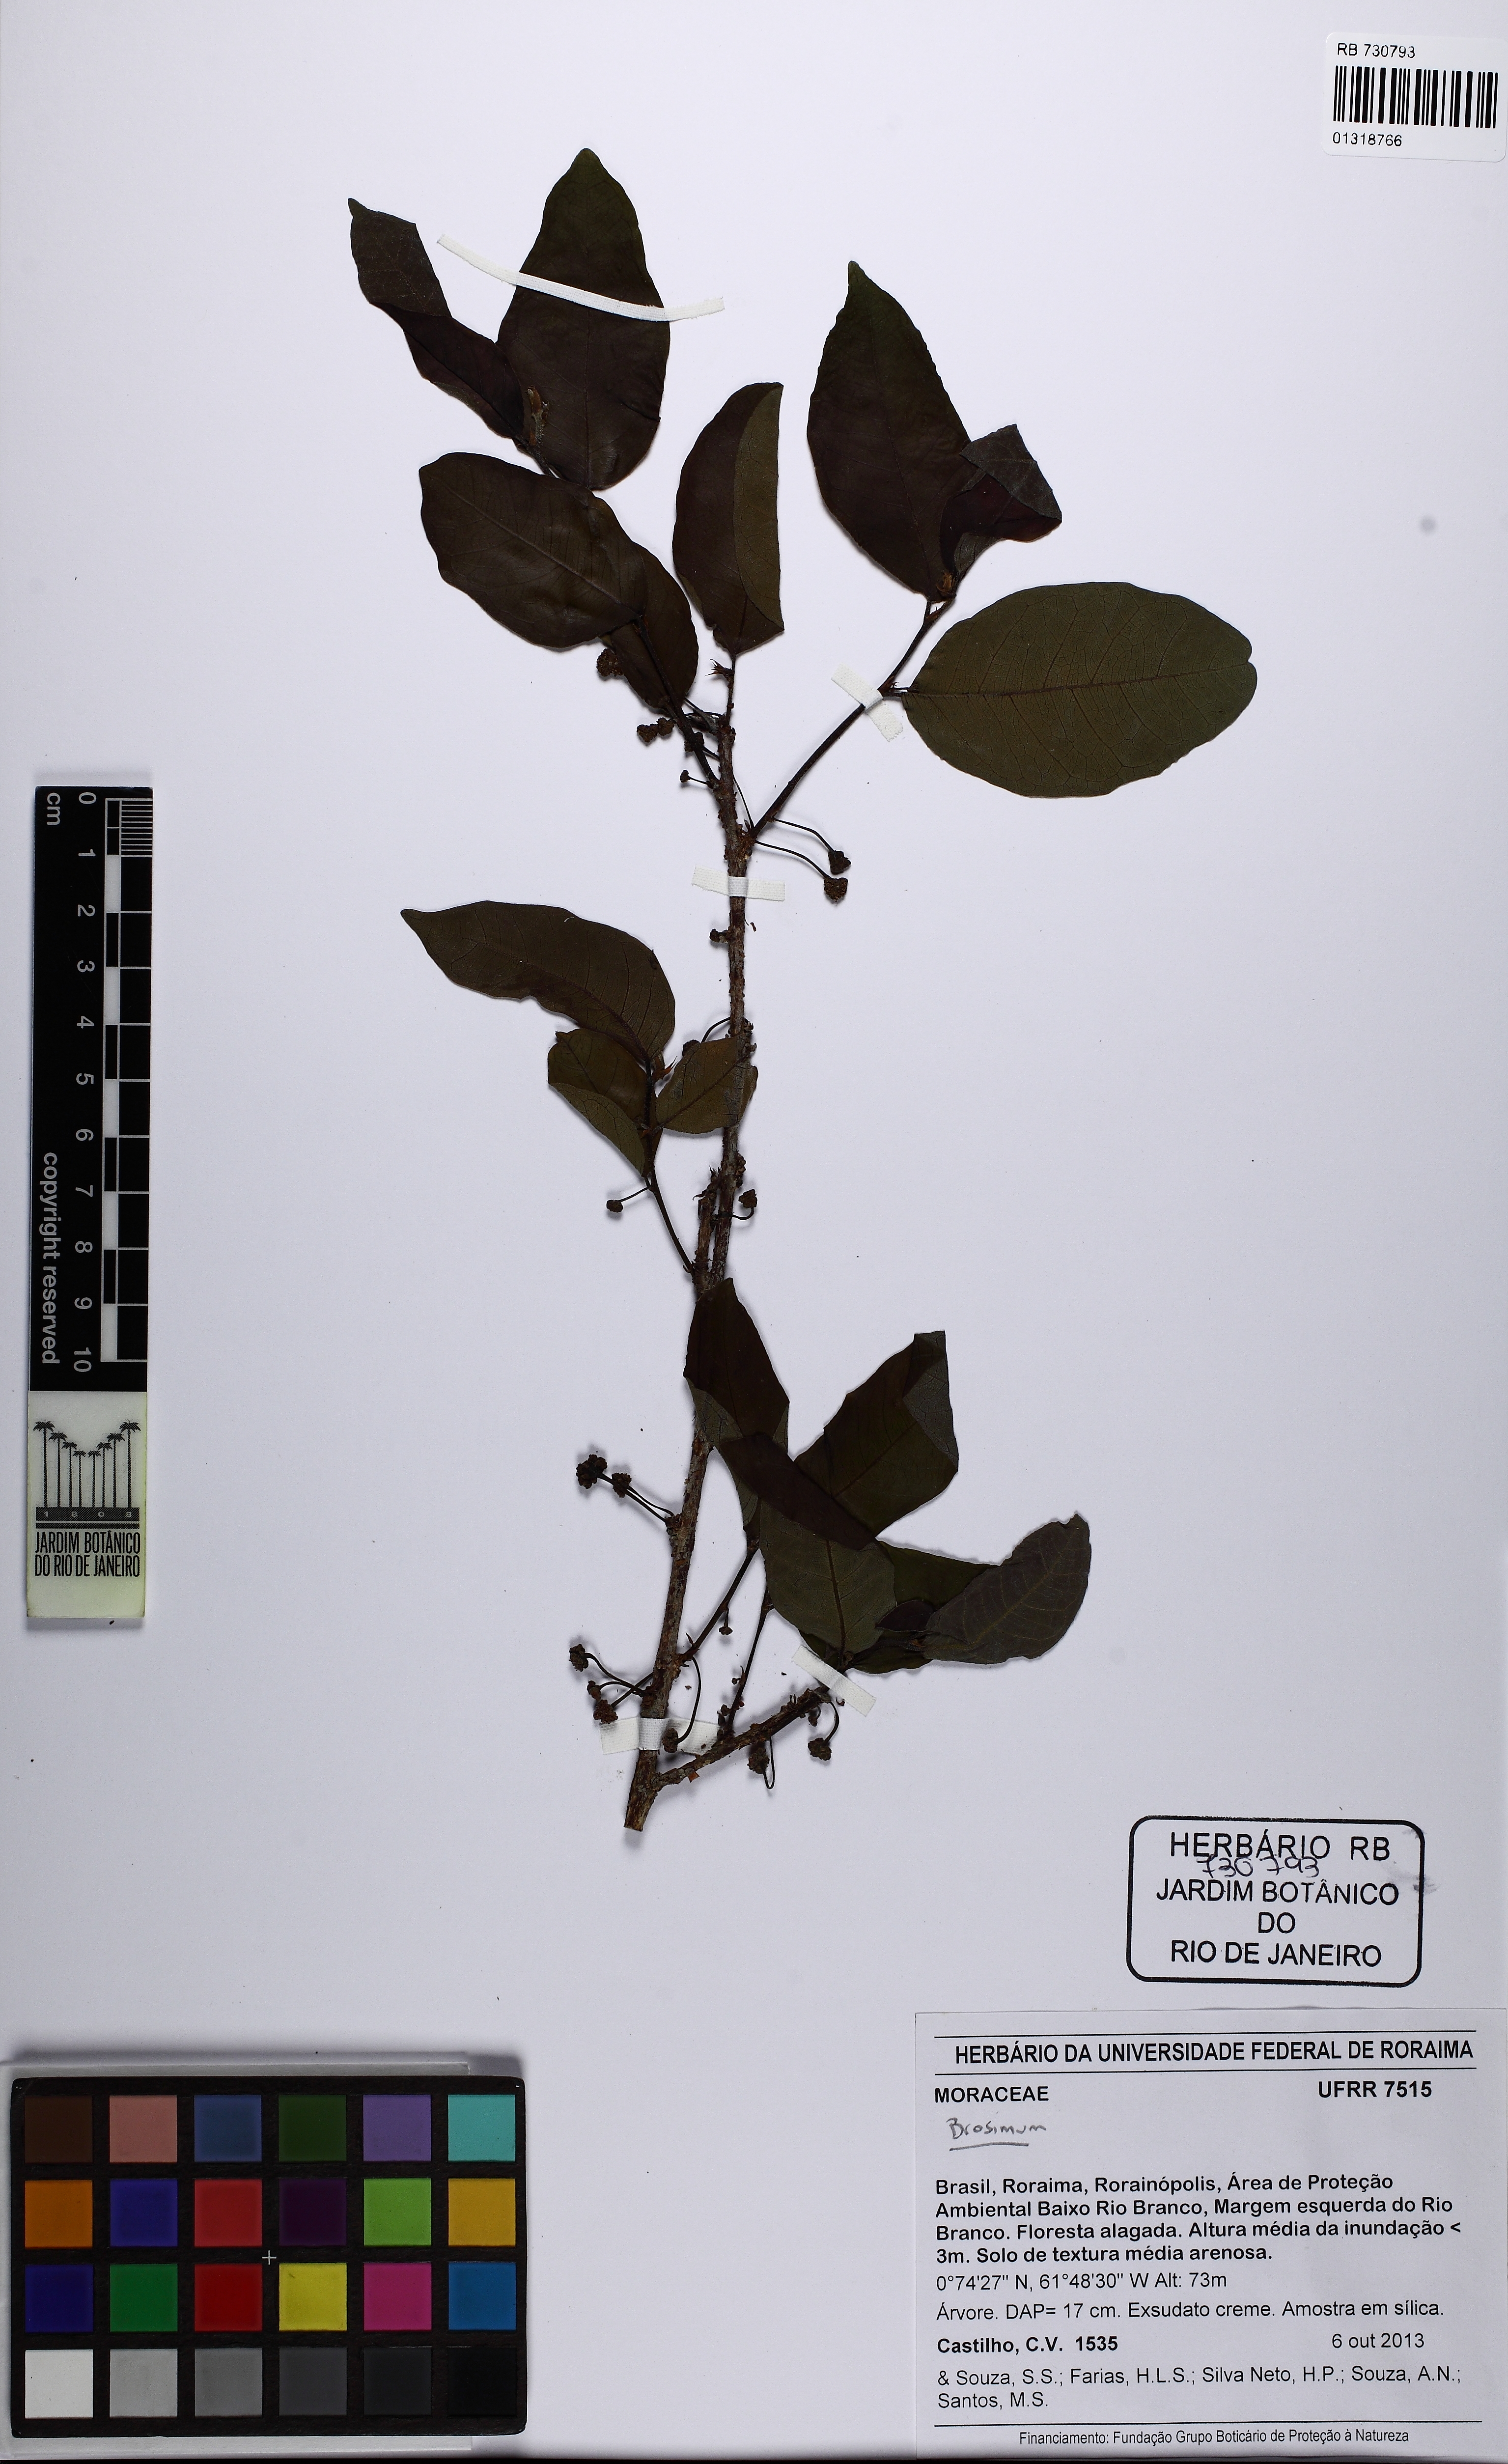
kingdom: Plantae
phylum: Tracheophyta
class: Magnoliopsida
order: Rosales
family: Moraceae
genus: Brosimum
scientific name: Brosimum
